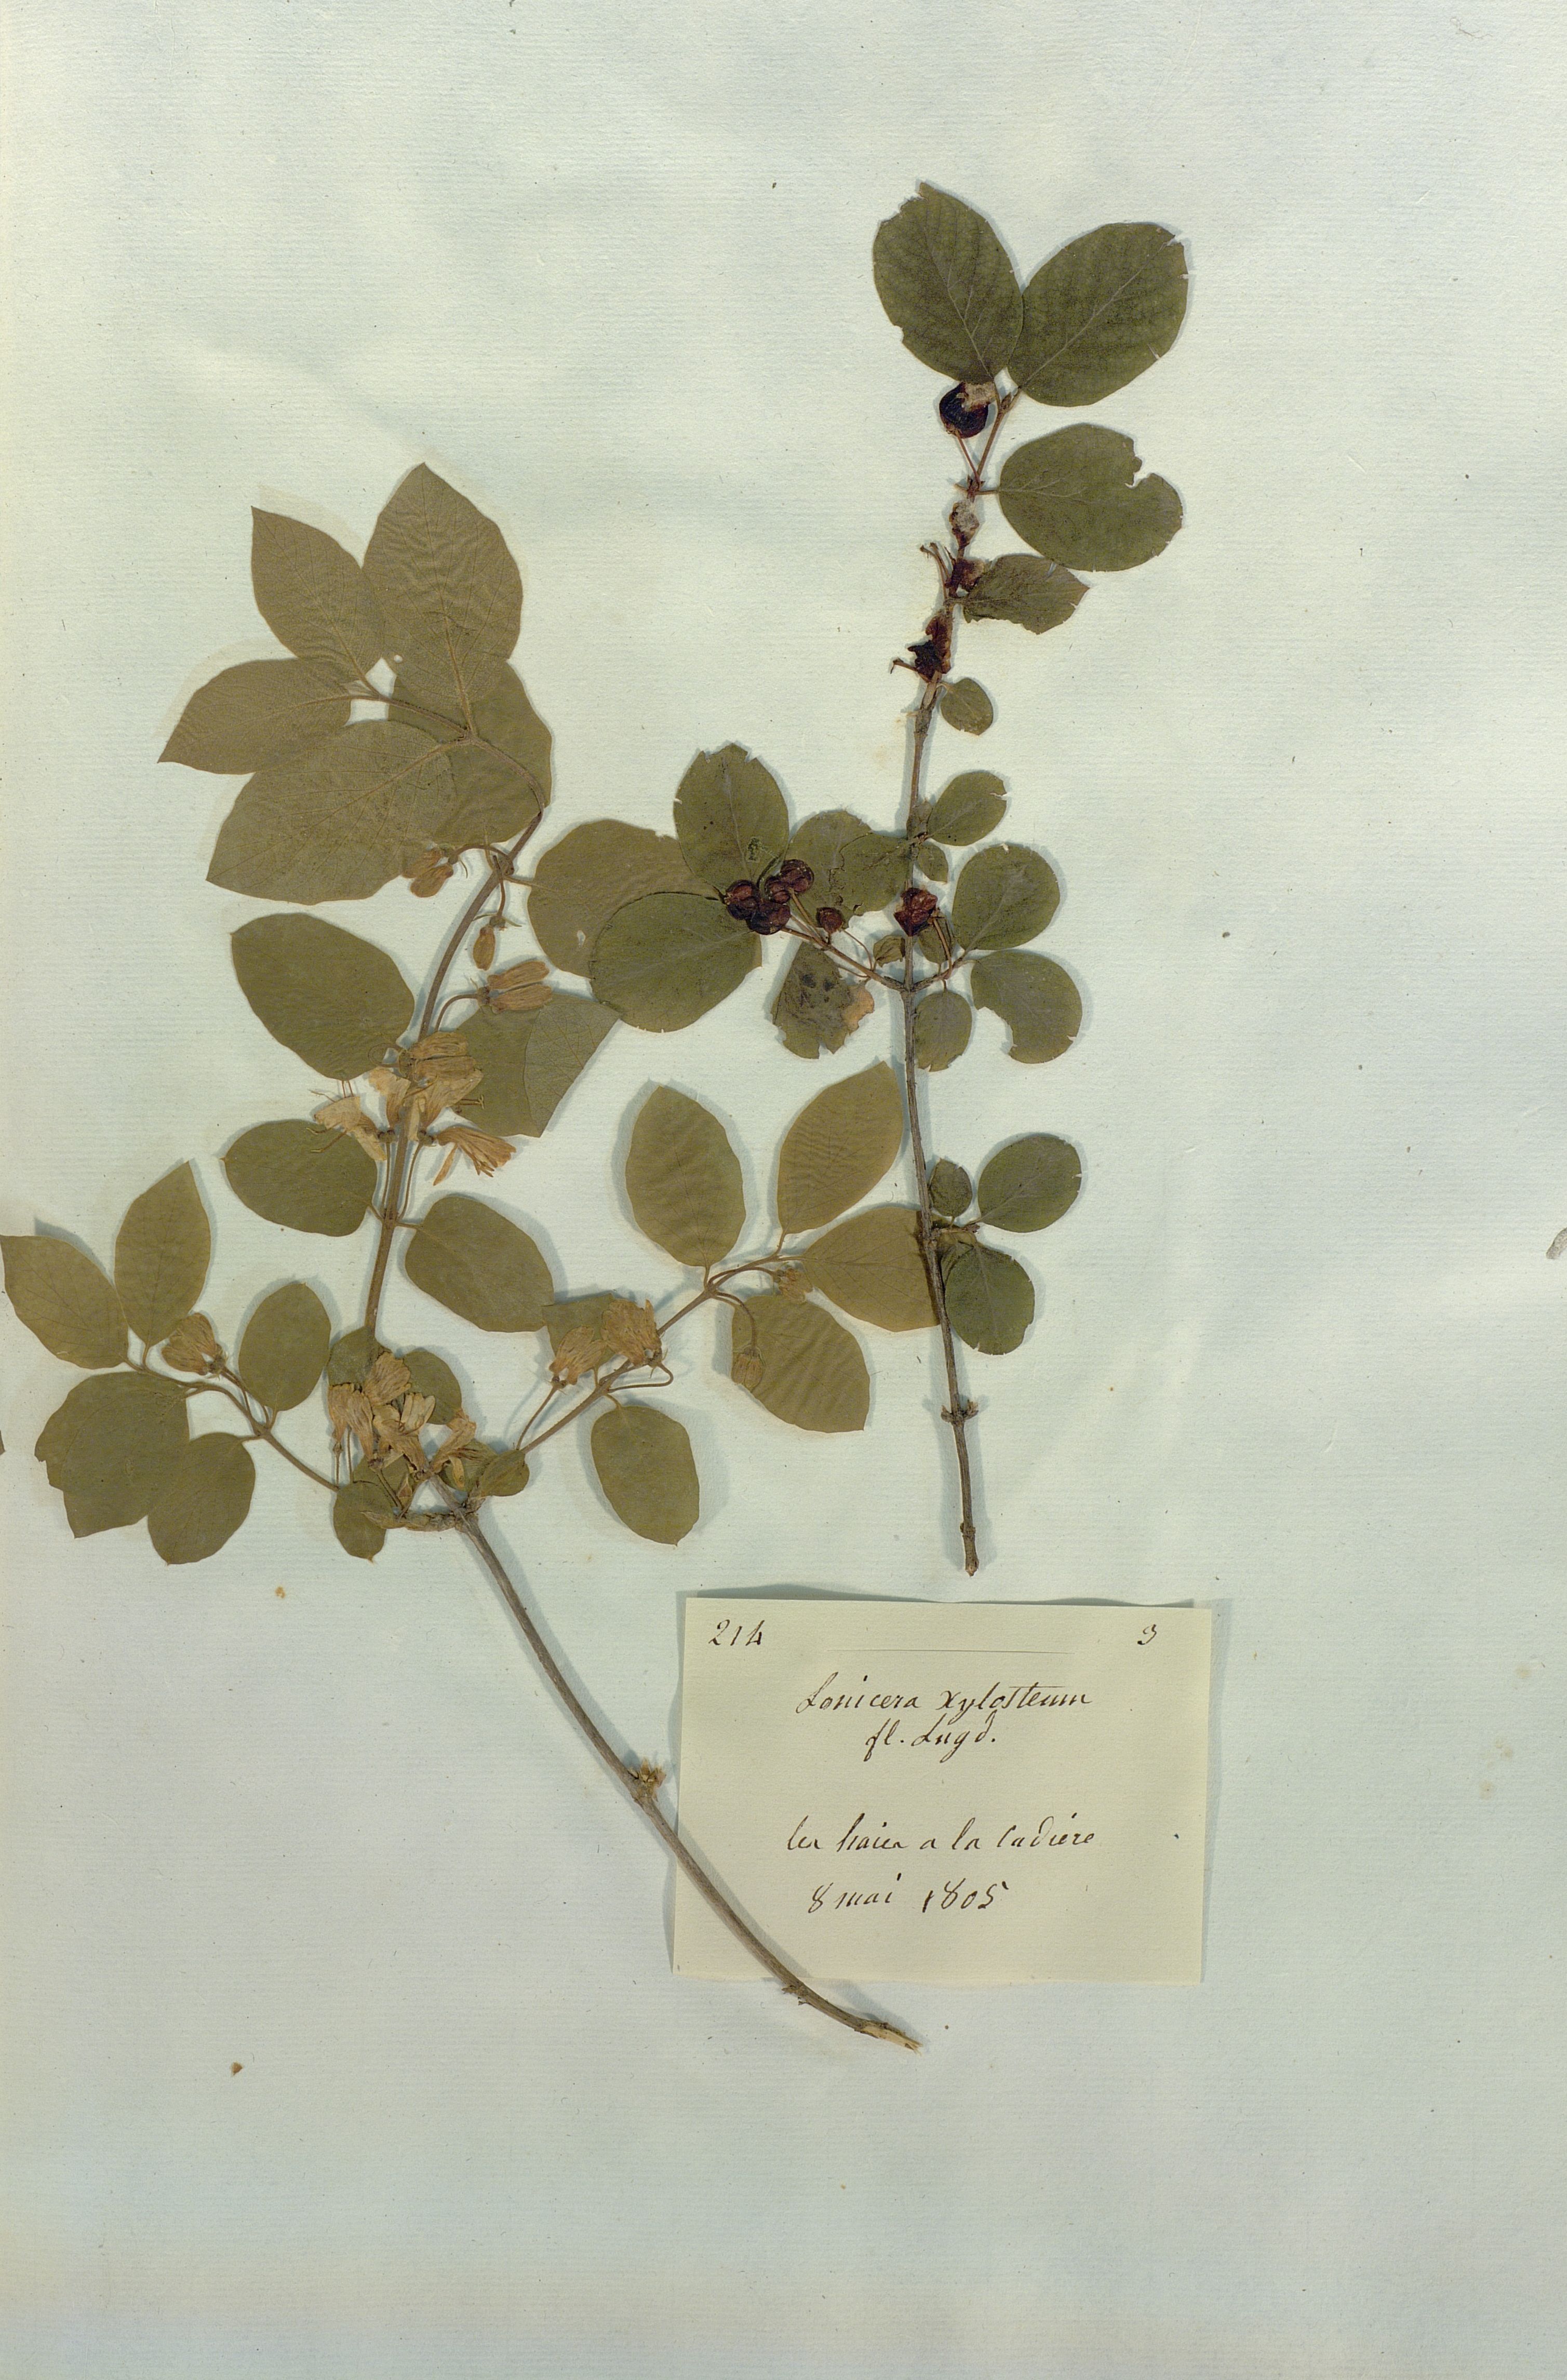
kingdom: Plantae
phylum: Tracheophyta
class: Magnoliopsida
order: Dipsacales
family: Caprifoliaceae
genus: Lonicera
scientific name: Lonicera xylosteum
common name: Fly honeysuckle
